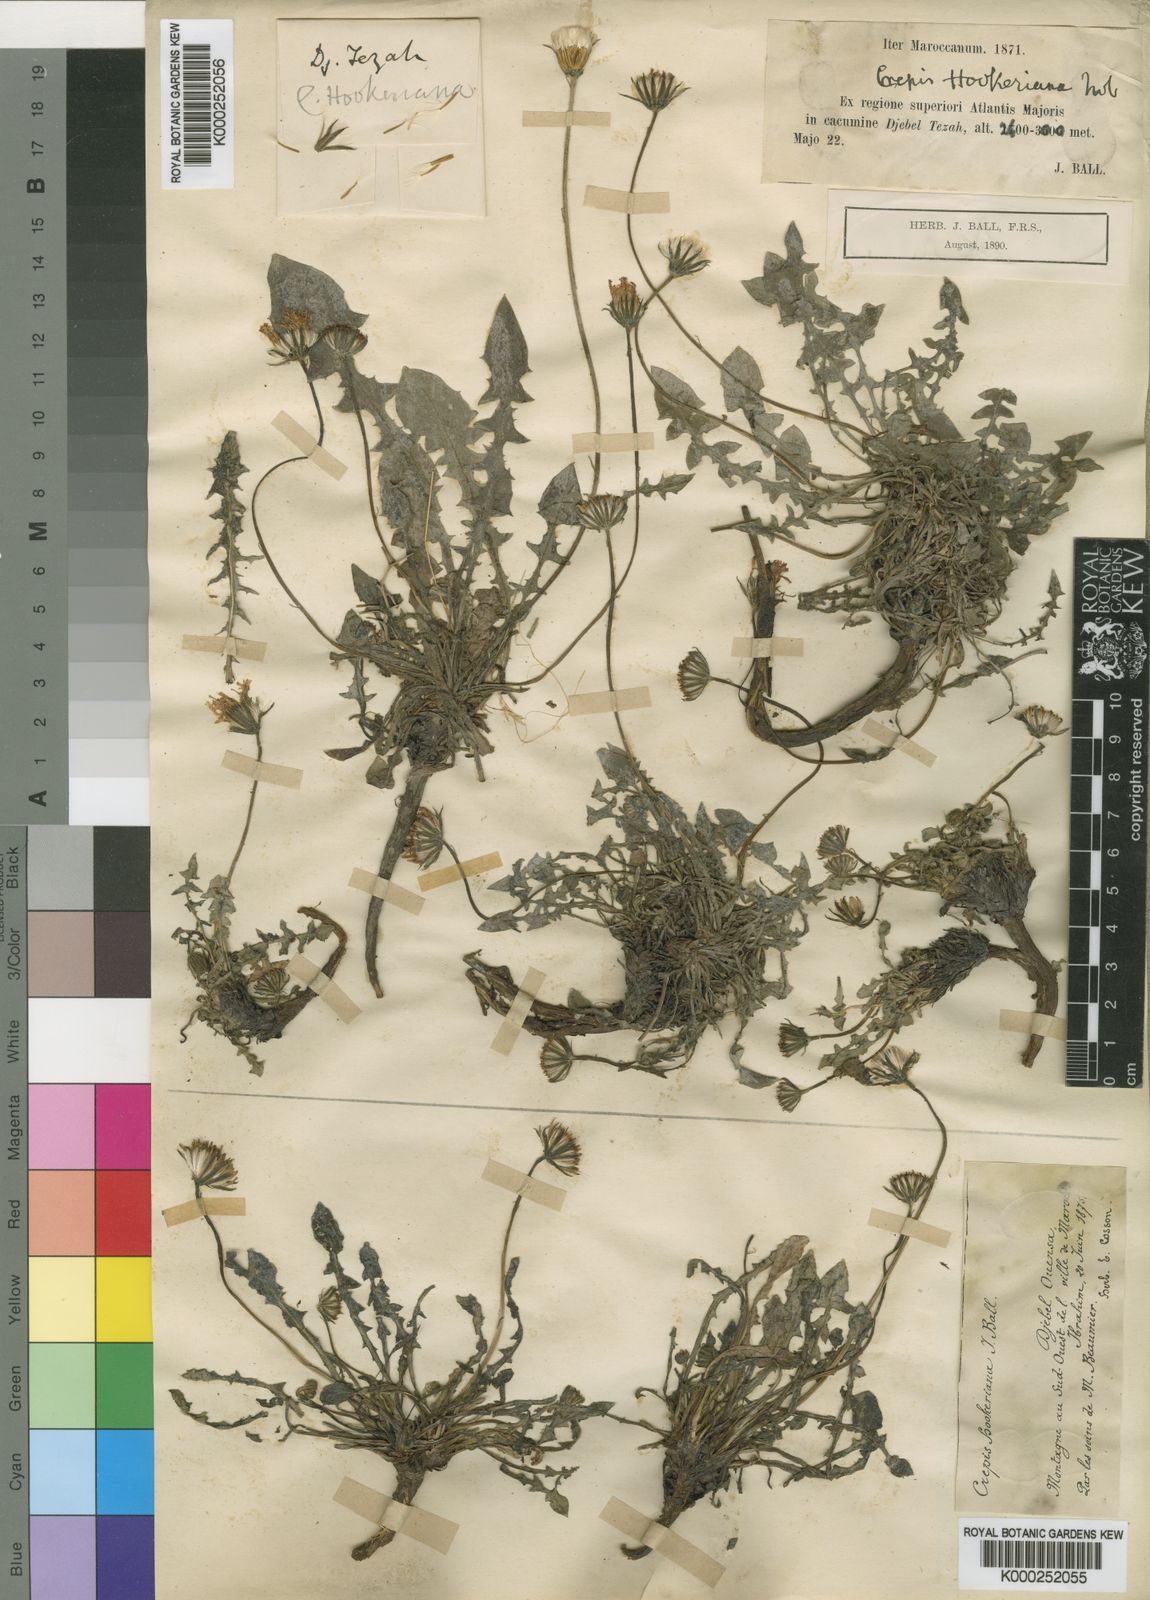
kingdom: Plantae
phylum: Tracheophyta
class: Magnoliopsida
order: Asterales
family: Asteraceae
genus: Crepis
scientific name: Crepis hookeriana
